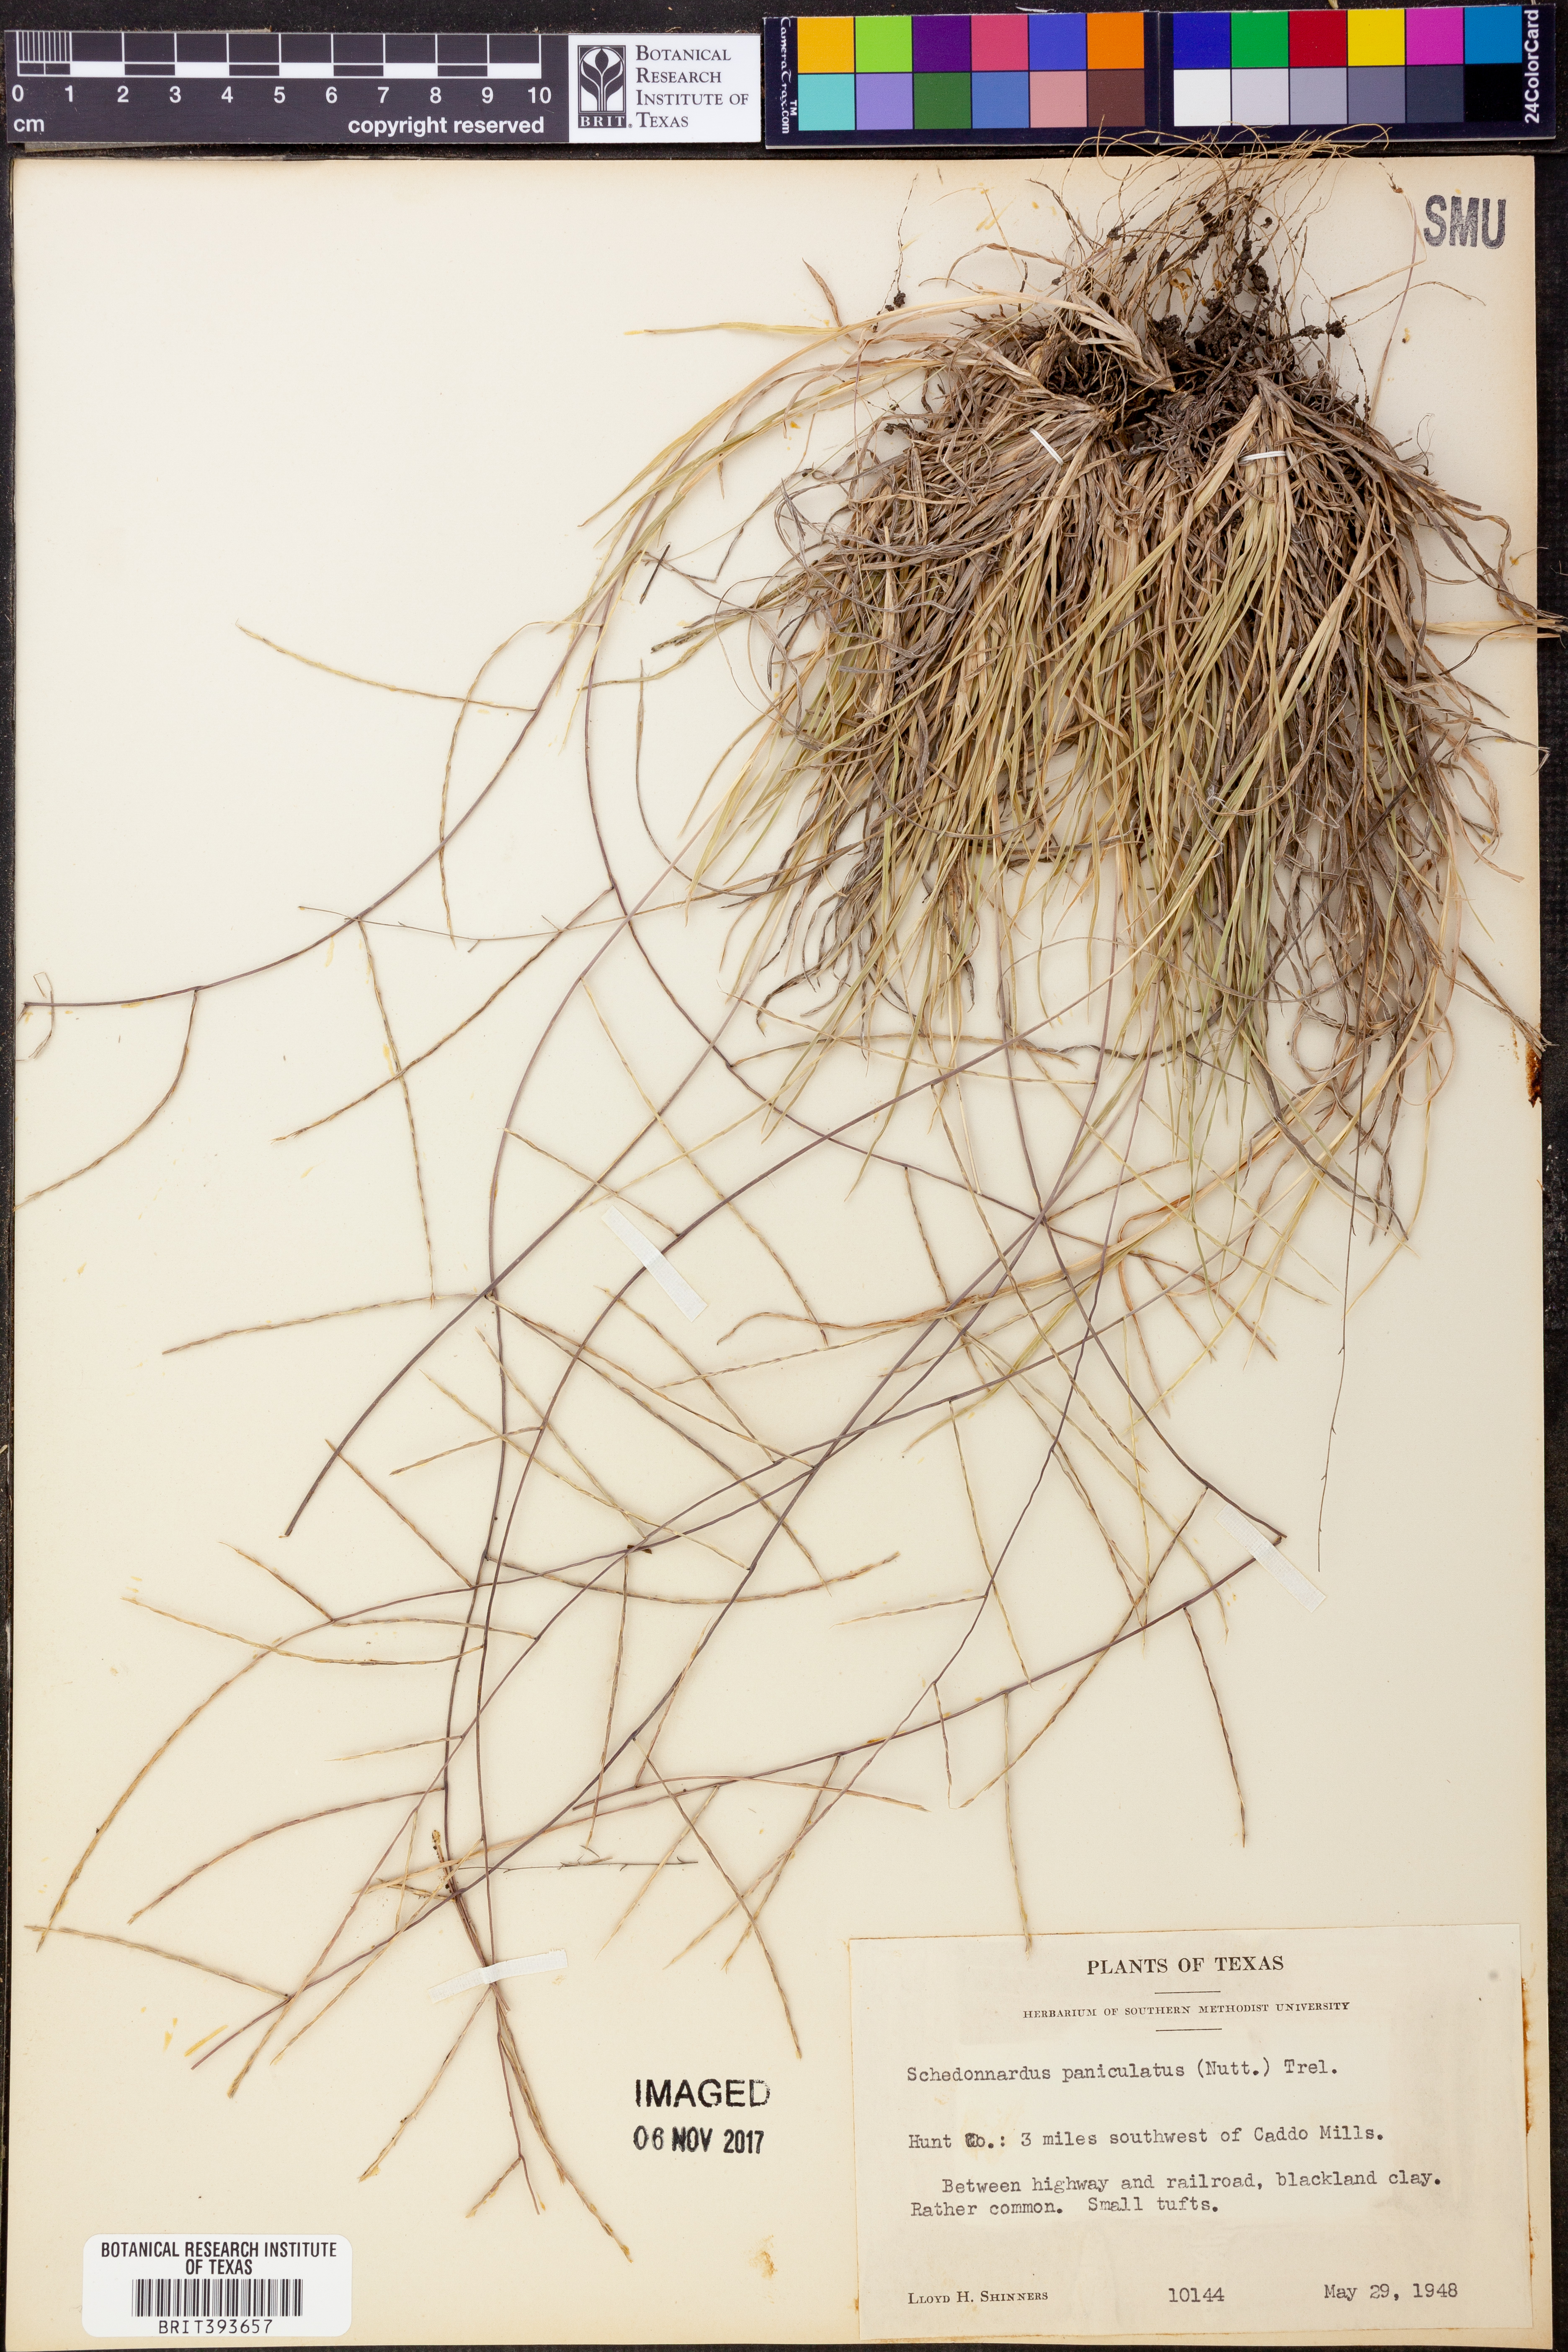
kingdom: Plantae
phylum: Tracheophyta
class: Liliopsida
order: Poales
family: Poaceae
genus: Muhlenbergia
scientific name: Muhlenbergia paniculata
